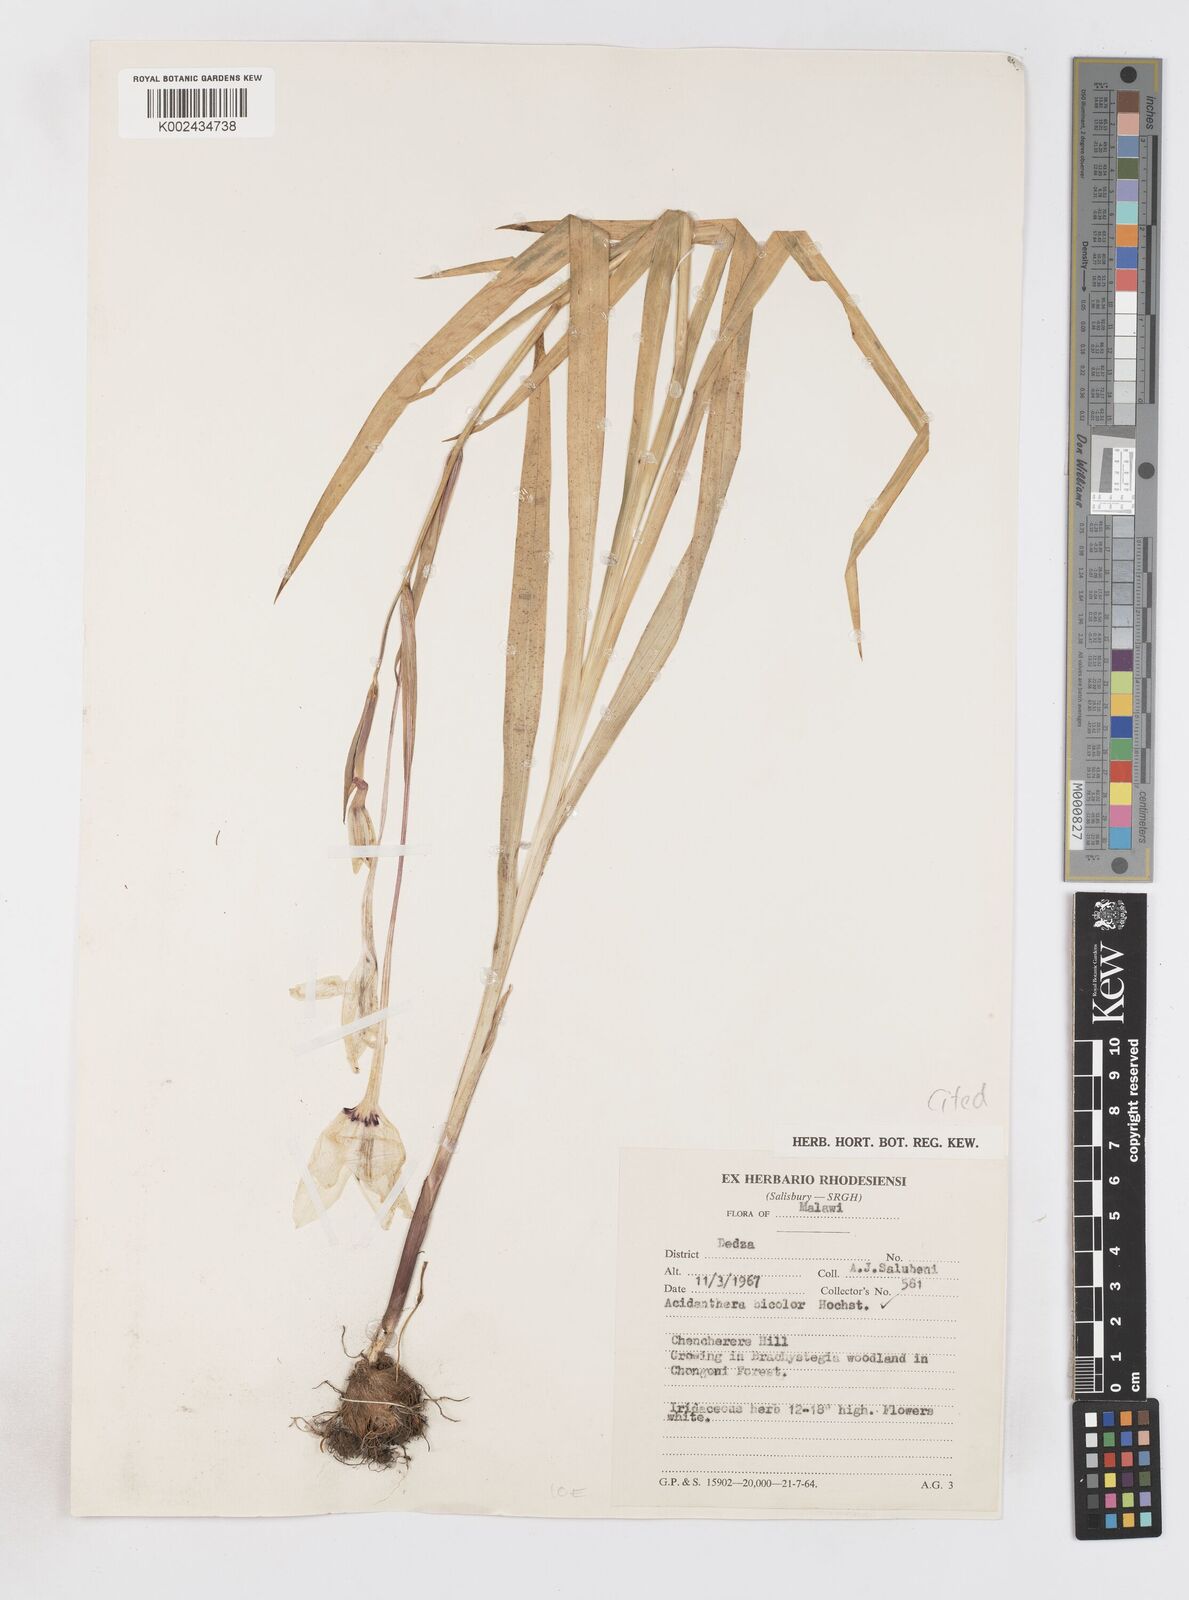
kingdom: Plantae
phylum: Tracheophyta
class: Liliopsida
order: Asparagales
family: Iridaceae
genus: Gladiolus
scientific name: Gladiolus murielae
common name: Acidanthera
